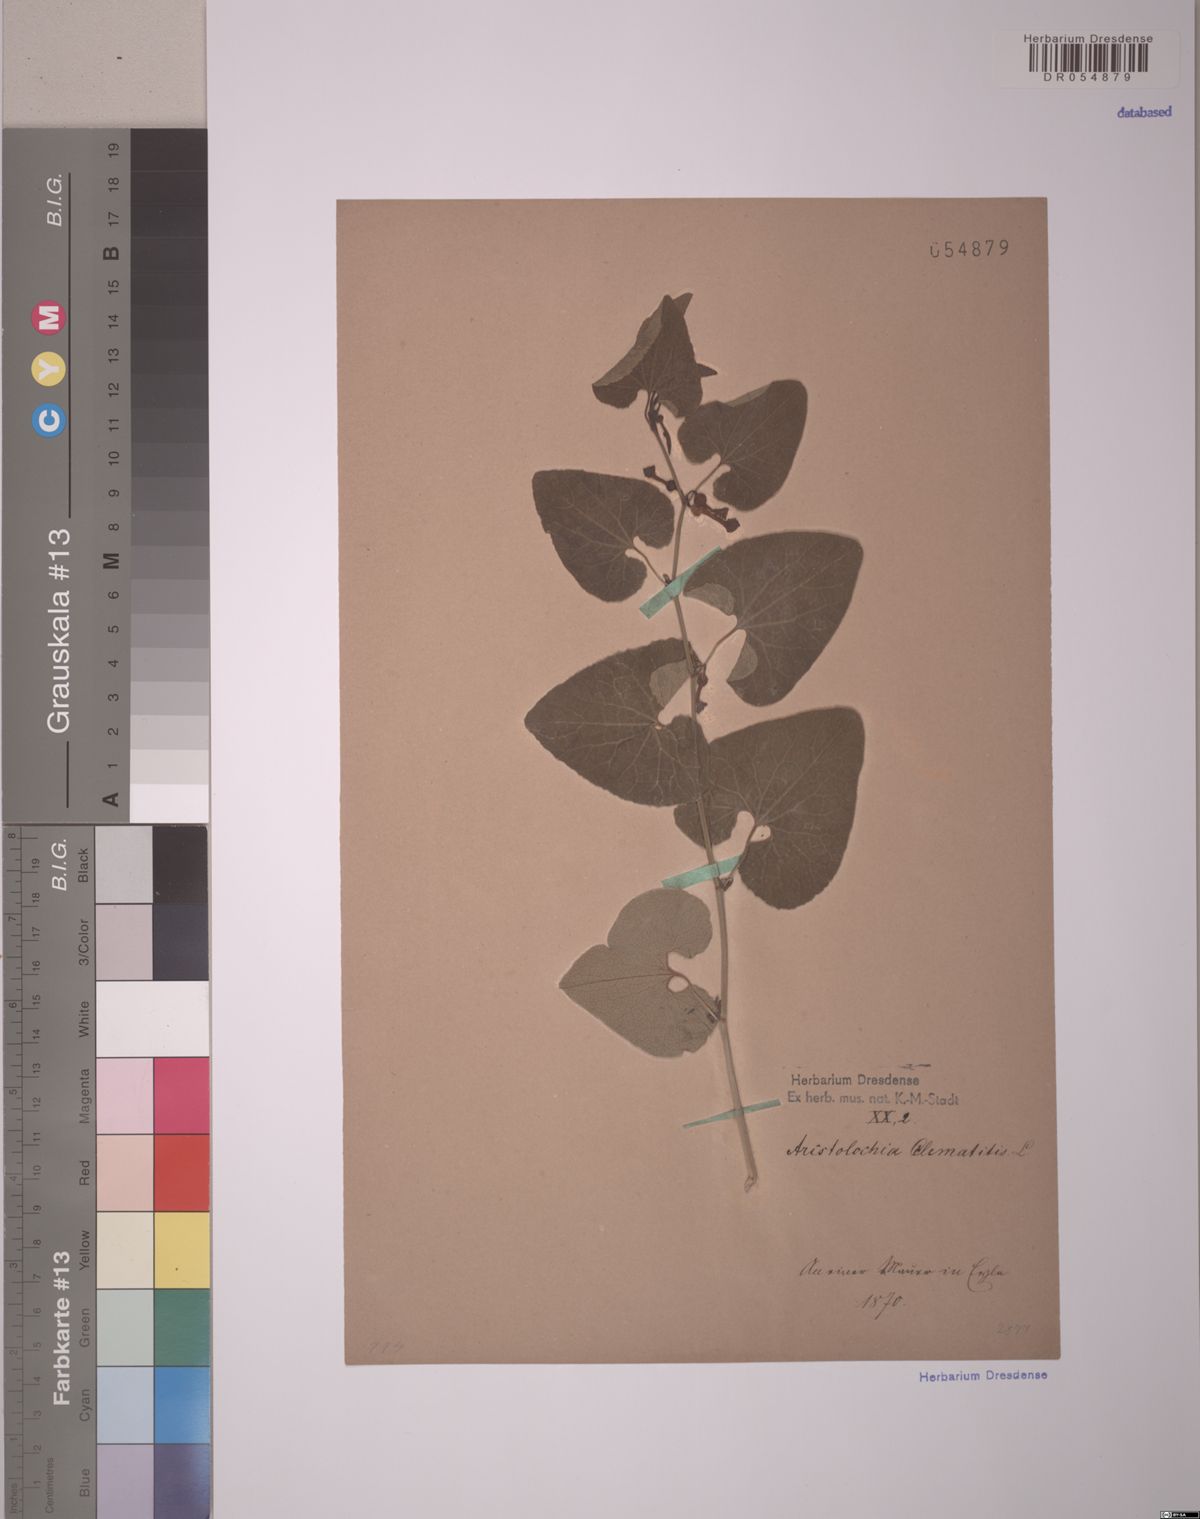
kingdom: Plantae
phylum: Tracheophyta
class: Magnoliopsida
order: Piperales
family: Aristolochiaceae
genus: Aristolochia
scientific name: Aristolochia clematitis
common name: Birthwort
